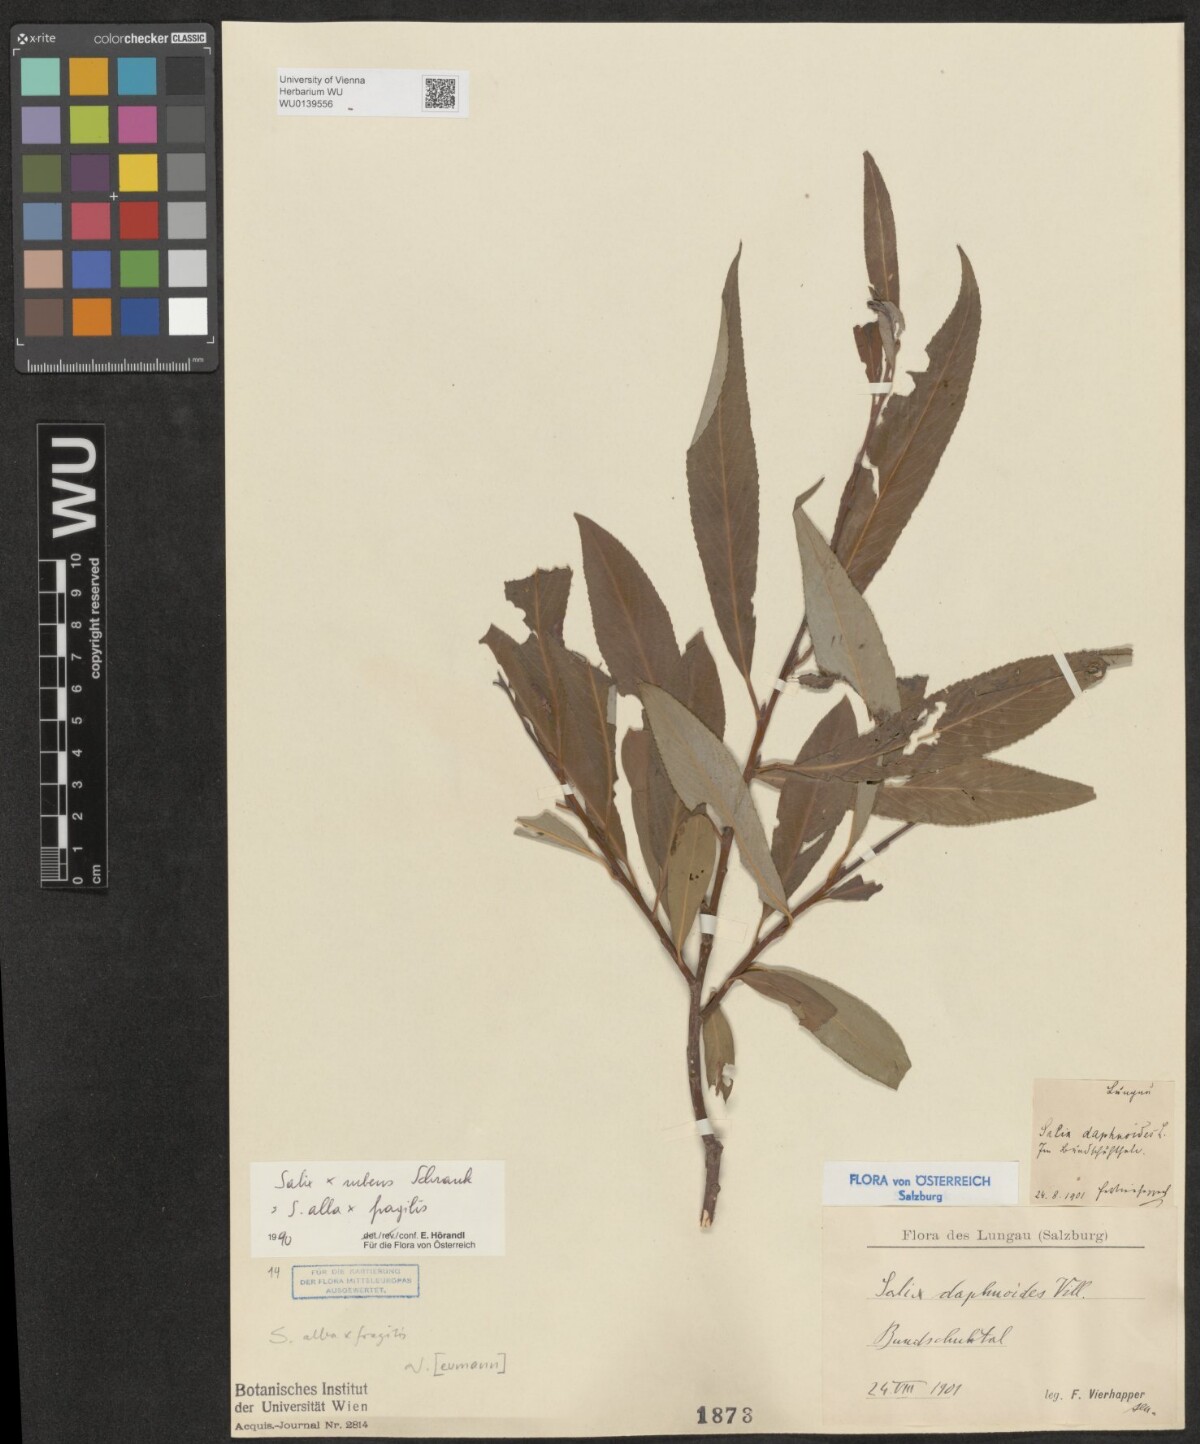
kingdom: Plantae
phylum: Tracheophyta
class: Magnoliopsida
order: Malpighiales
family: Salicaceae
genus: Salix
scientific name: Salix rubens
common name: Hybrid crack willow
